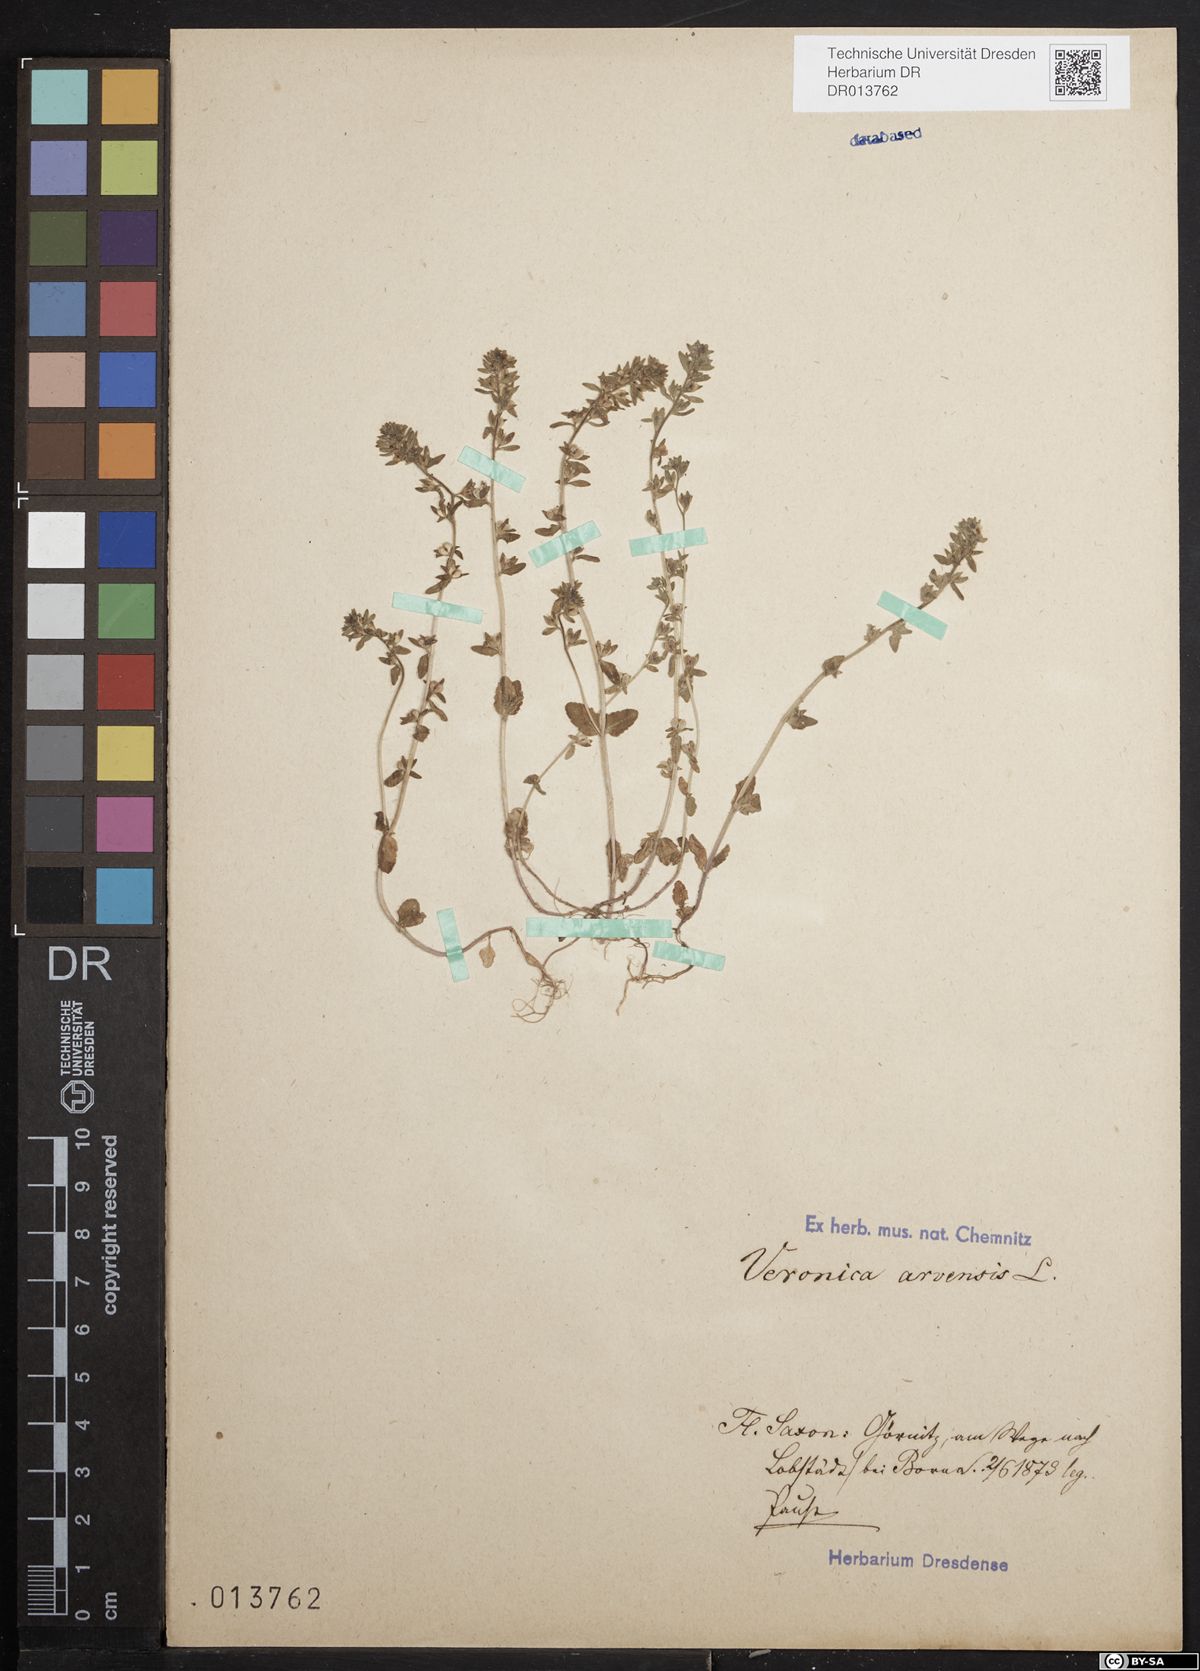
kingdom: Plantae
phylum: Tracheophyta
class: Magnoliopsida
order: Lamiales
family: Plantaginaceae
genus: Veronica
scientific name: Veronica arvensis
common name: Corn speedwell
